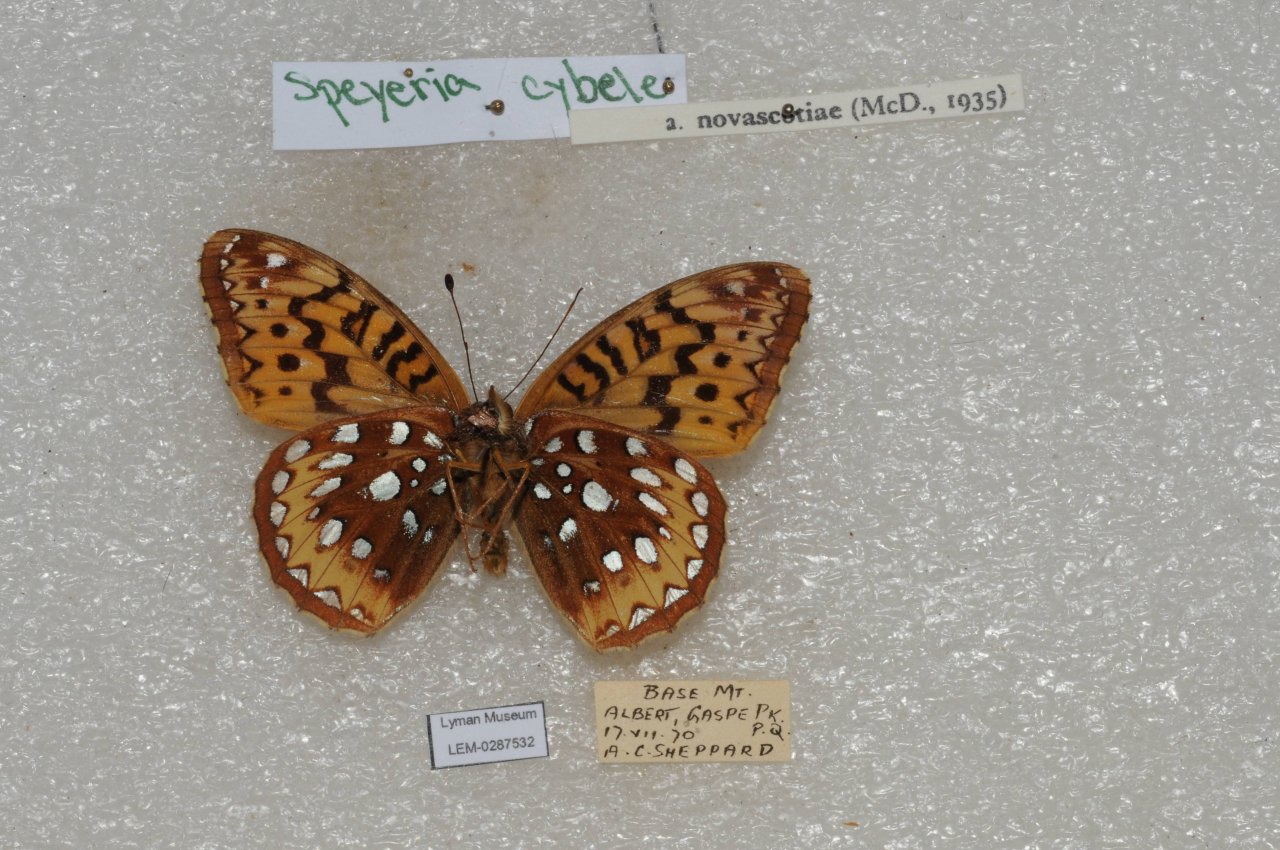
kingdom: Animalia
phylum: Arthropoda
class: Insecta
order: Lepidoptera
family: Nymphalidae
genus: Speyeria
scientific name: Speyeria cybele
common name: Great Spangled Fritillary
